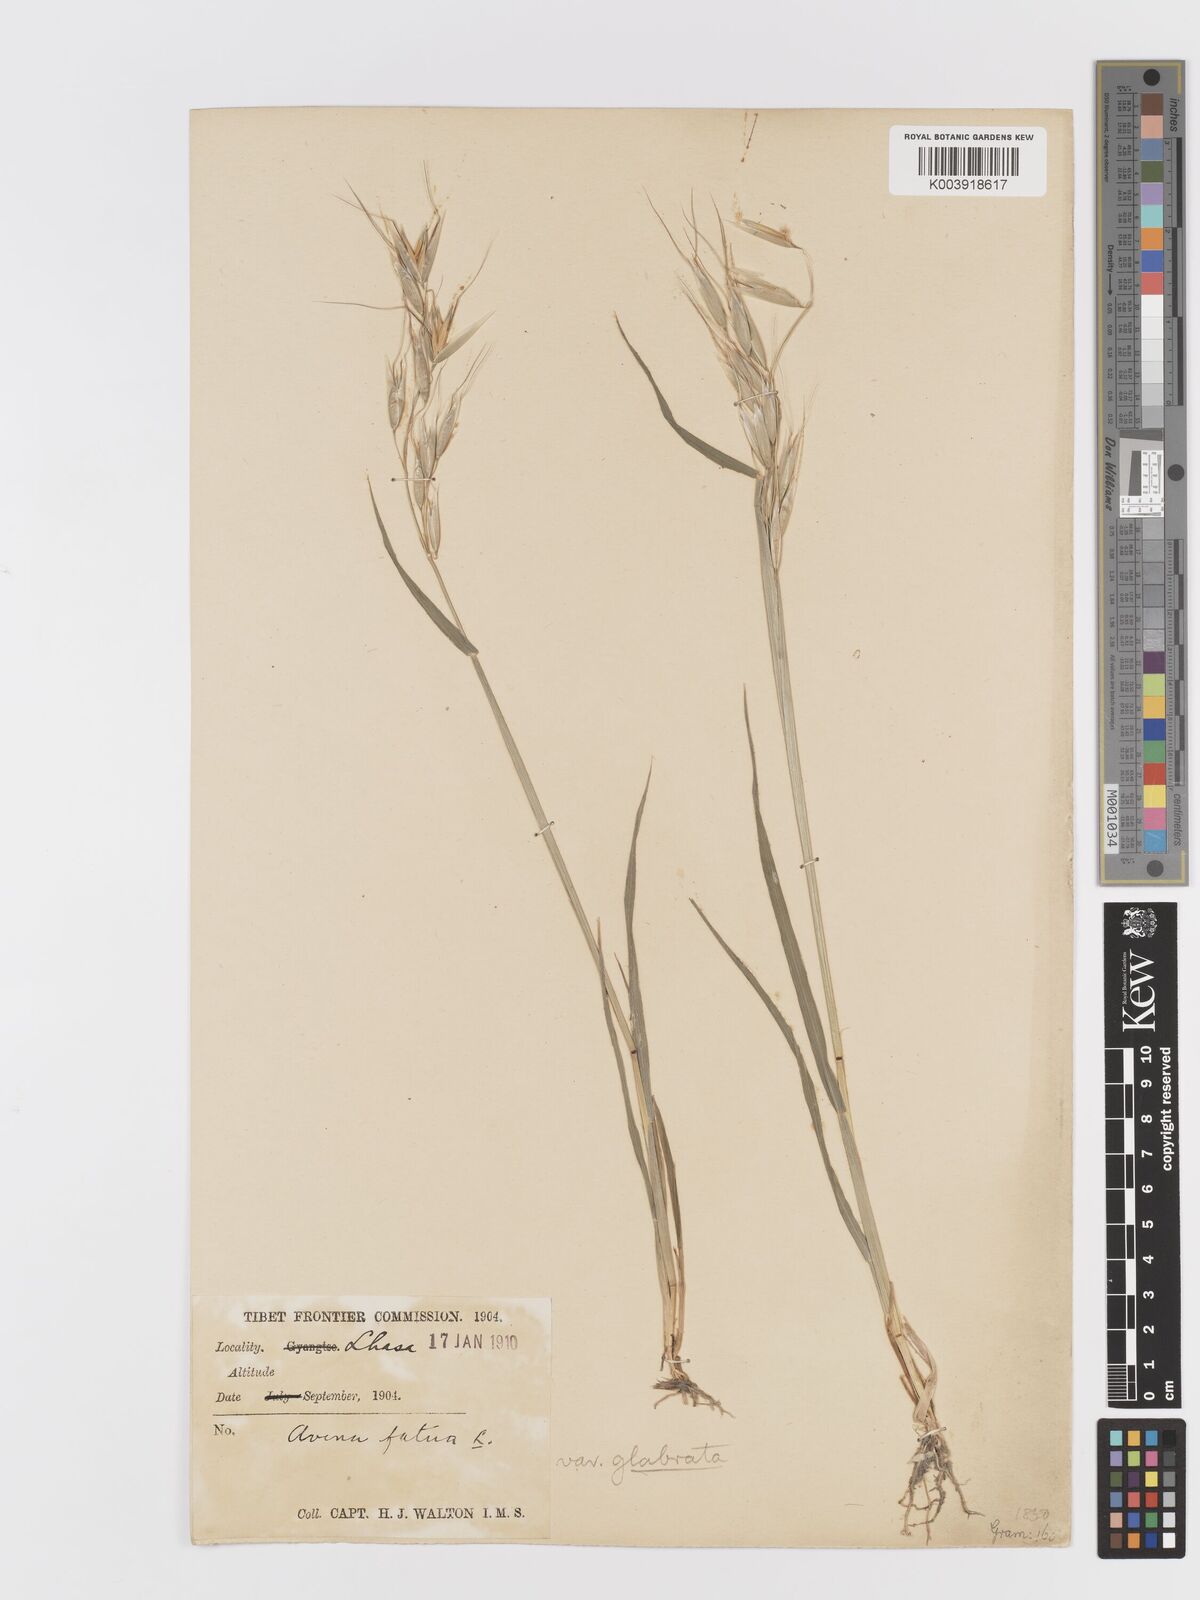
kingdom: Plantae
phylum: Tracheophyta
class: Liliopsida
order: Poales
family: Poaceae
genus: Avena
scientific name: Avena fatua
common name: Wild oat
